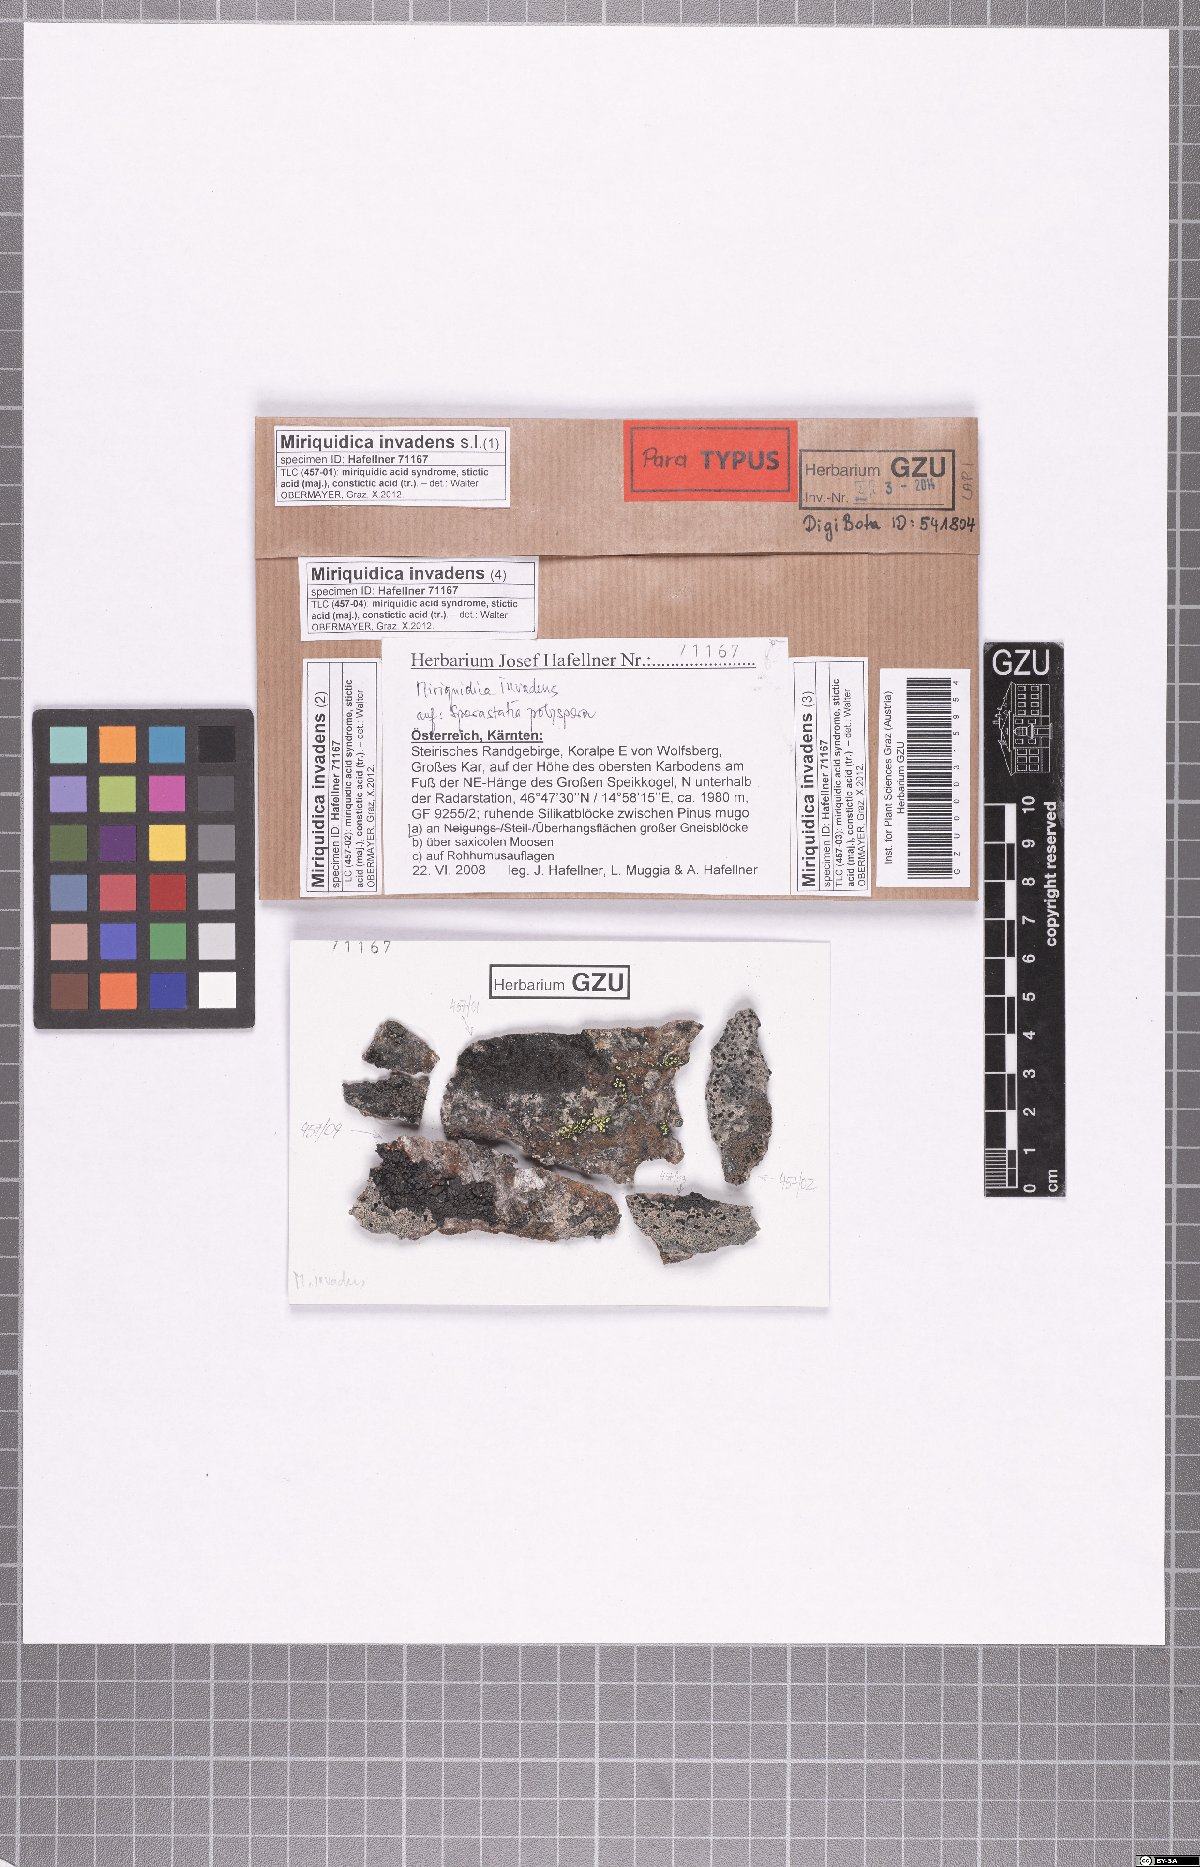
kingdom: Fungi
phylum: Ascomycota
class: Lecanoromycetes
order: Lecanorales
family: Lecanoraceae
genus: Miriquidica
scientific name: Miriquidica invadens
